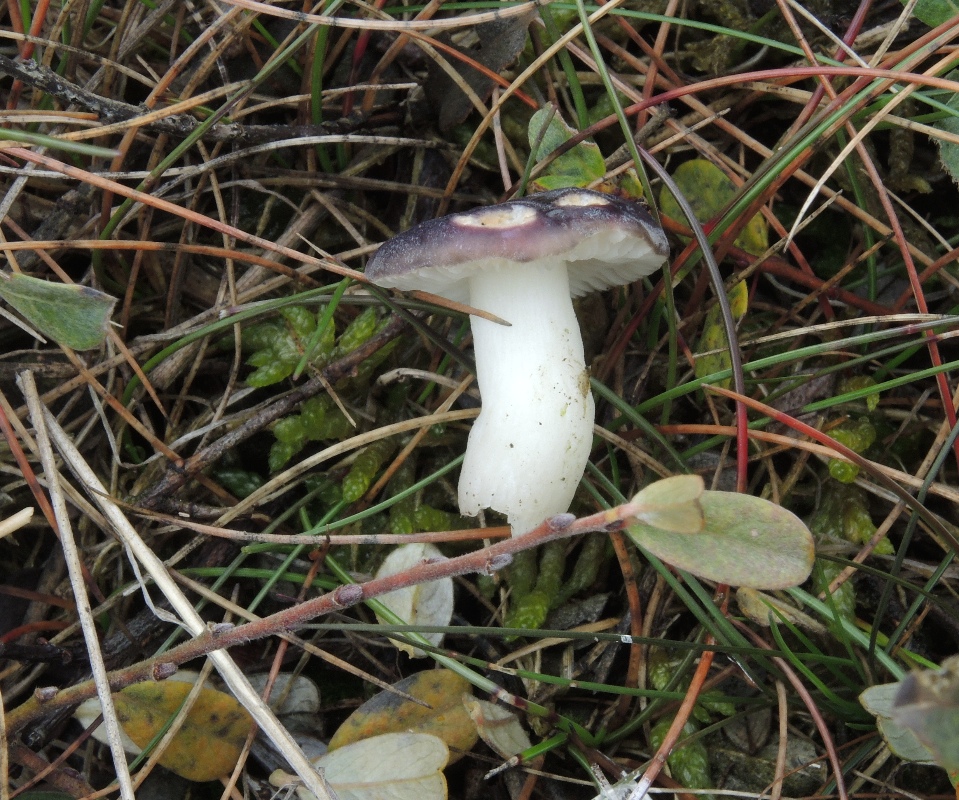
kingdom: Fungi
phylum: Basidiomycota
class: Agaricomycetes
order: Russulales
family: Russulaceae
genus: Russula
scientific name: Russula laccata
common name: klit-skørhat
